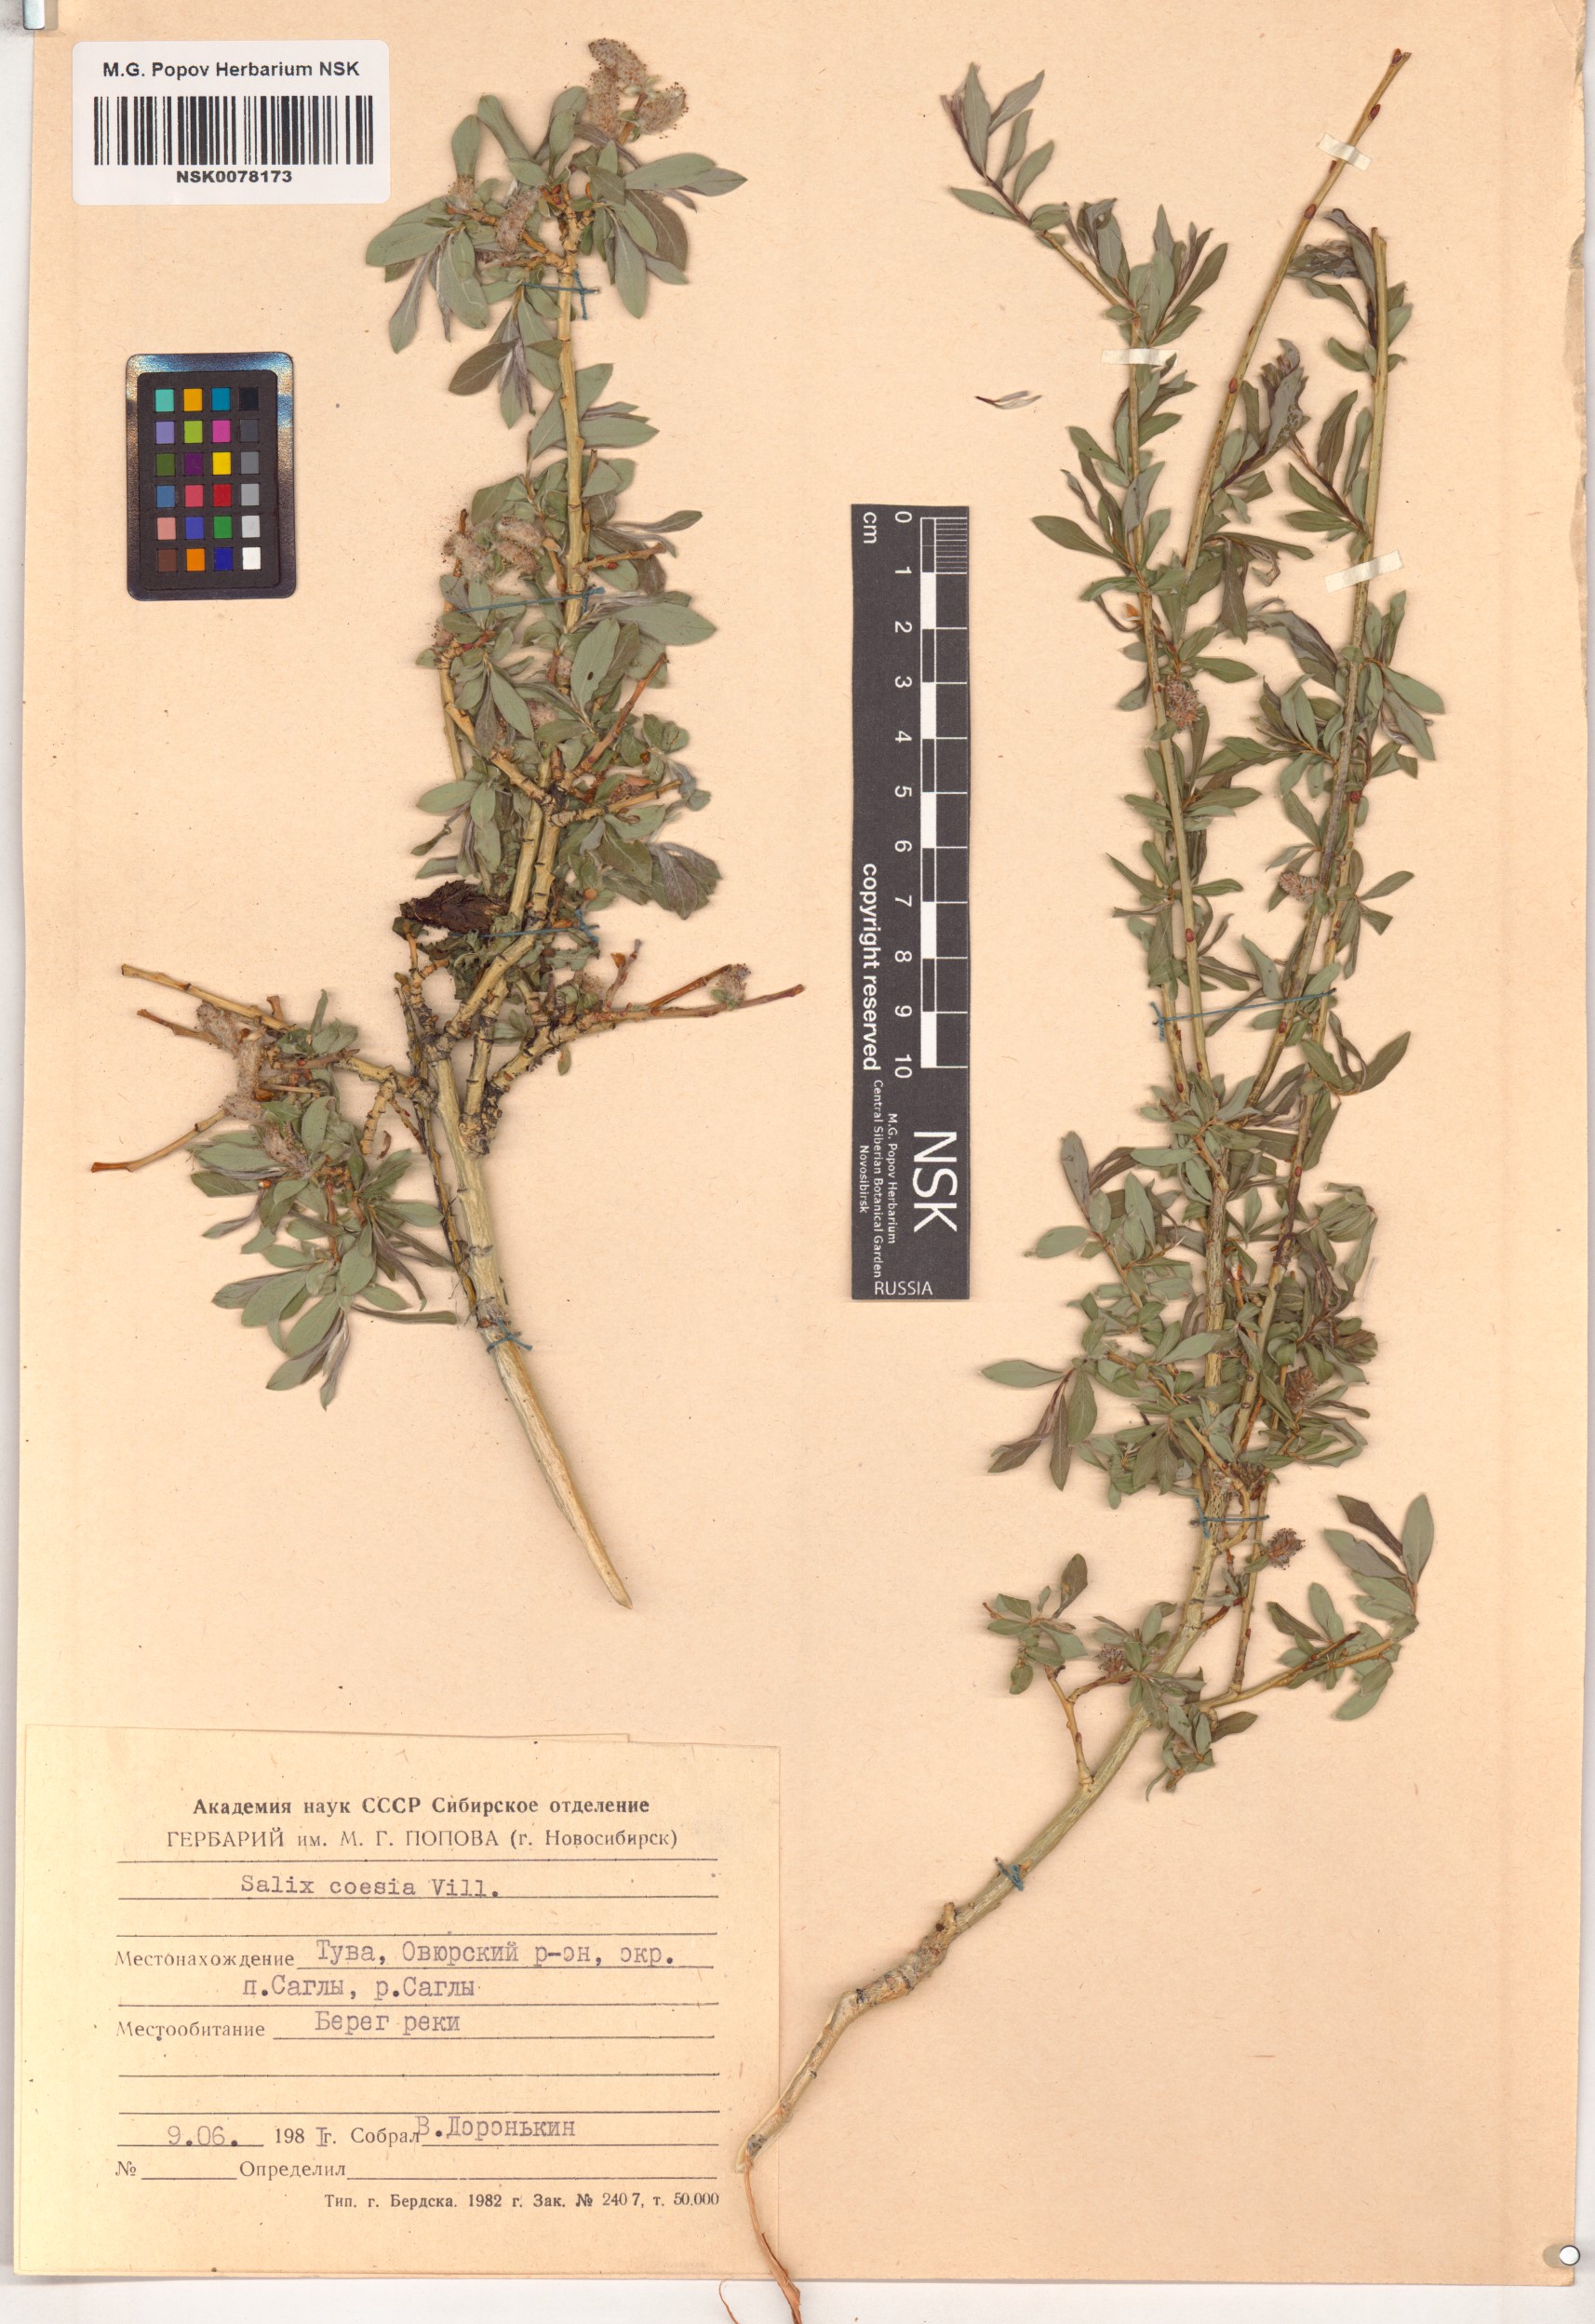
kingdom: Plantae
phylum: Tracheophyta
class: Magnoliopsida
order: Malpighiales
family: Salicaceae
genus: Salix
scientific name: Salix caesia
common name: Blue willow
